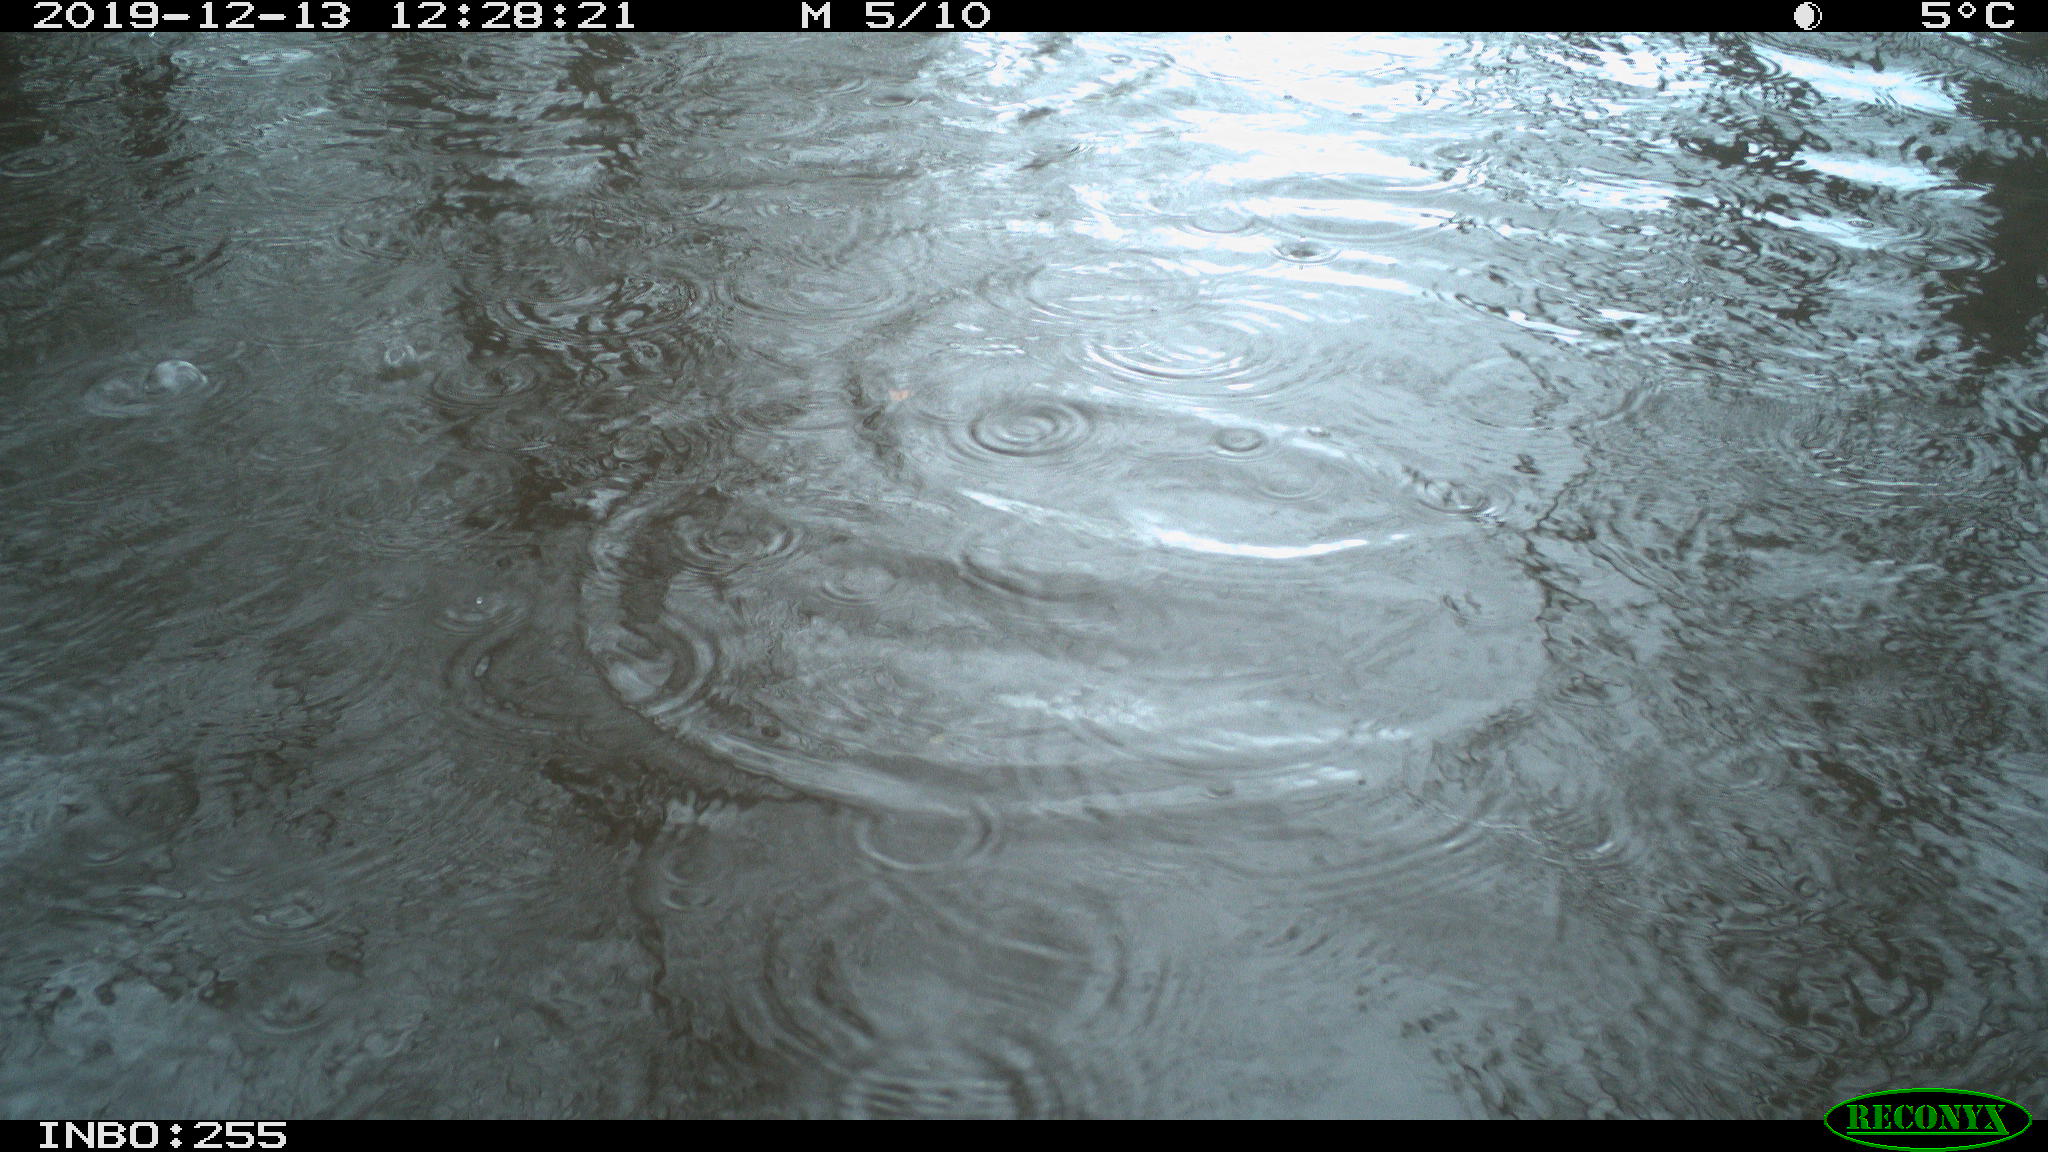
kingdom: Animalia
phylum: Chordata
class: Aves
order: Anseriformes
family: Anatidae
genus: Anas
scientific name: Anas platyrhynchos
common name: Mallard
